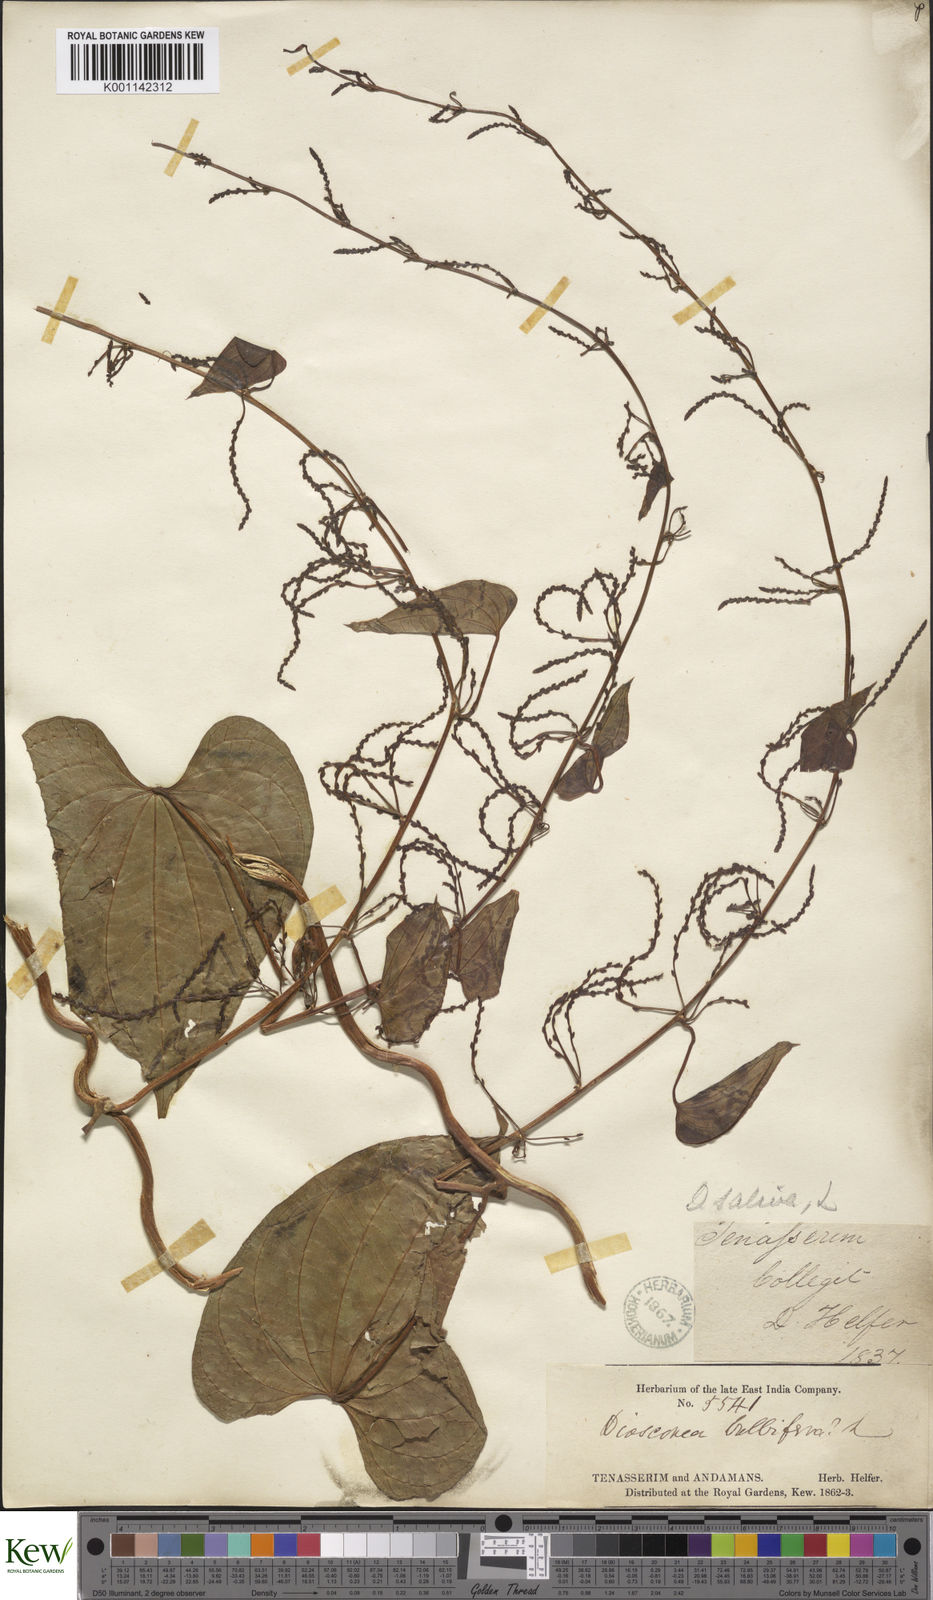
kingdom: Plantae
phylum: Tracheophyta
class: Liliopsida
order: Dioscoreales
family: Dioscoreaceae
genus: Dioscorea
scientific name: Dioscorea bulbifera
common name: Air yam
